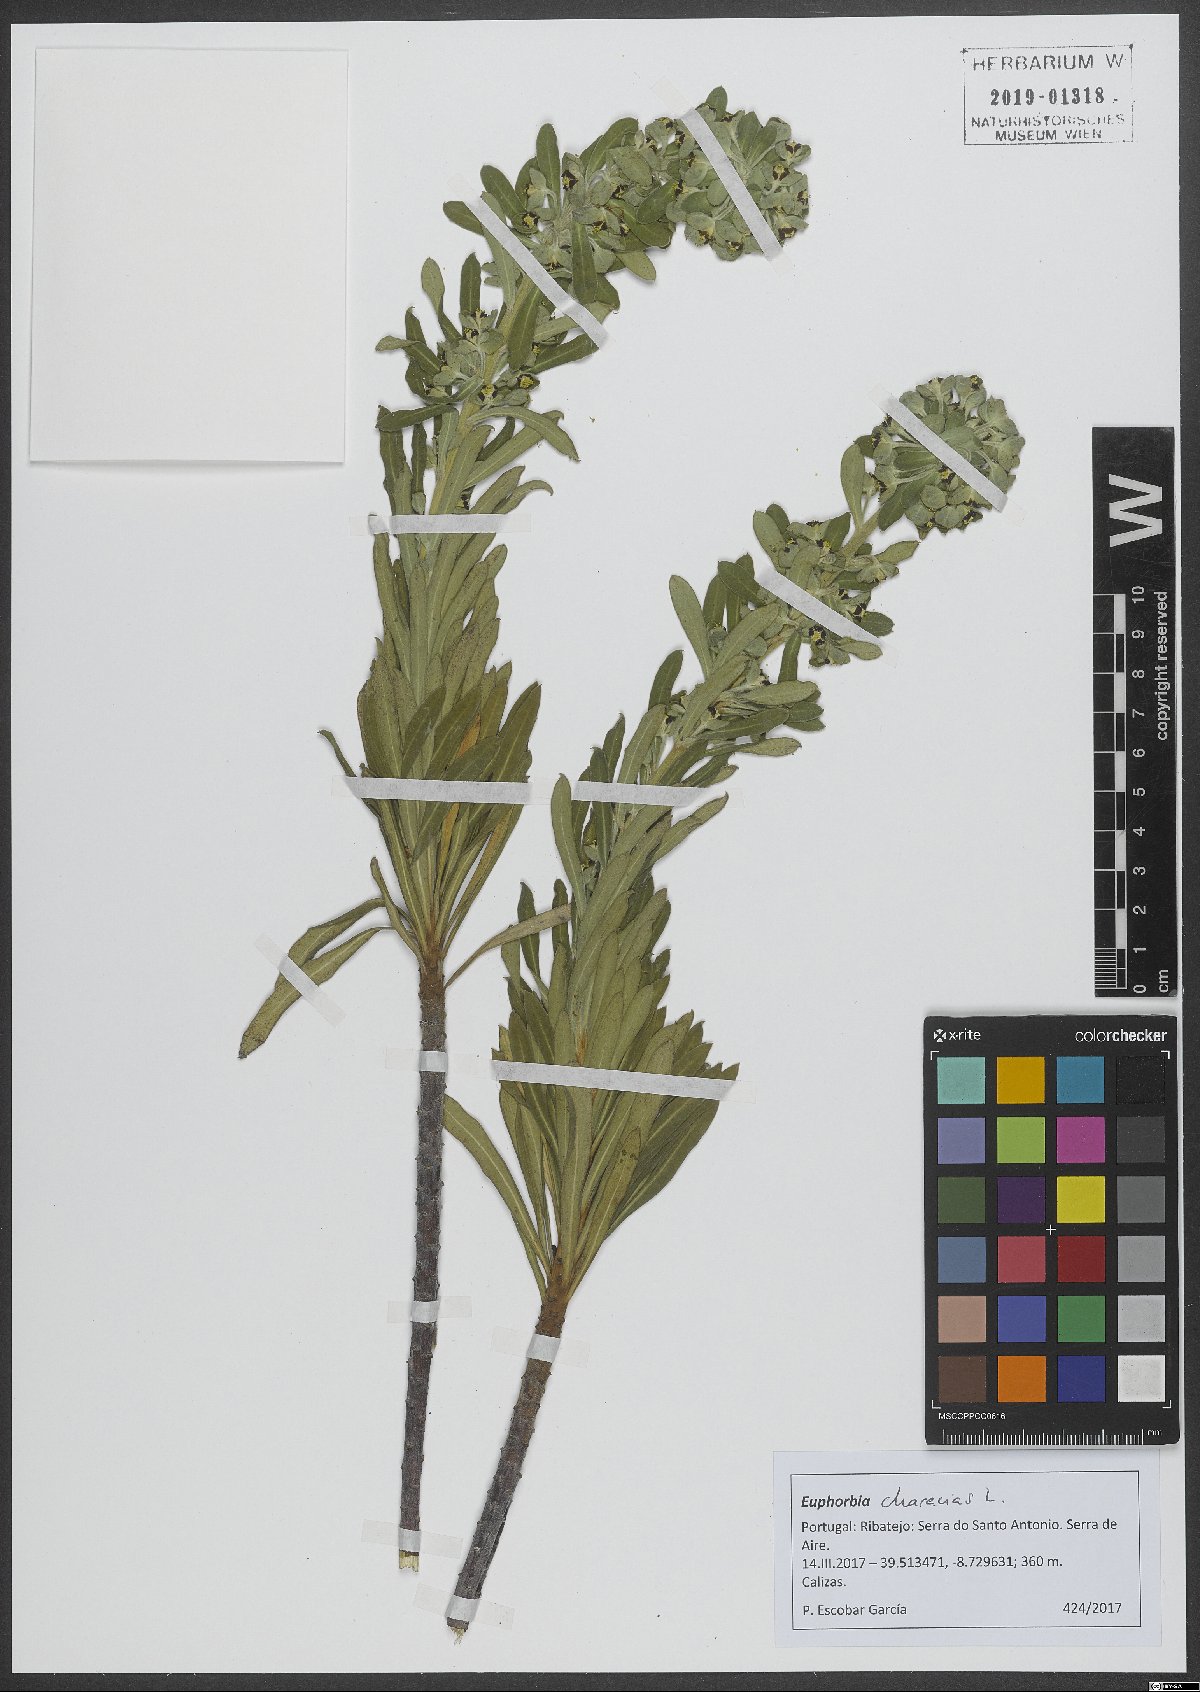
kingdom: Plantae
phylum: Tracheophyta
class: Magnoliopsida
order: Malpighiales
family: Euphorbiaceae
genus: Euphorbia
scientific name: Euphorbia characias
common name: Mediterranean spurge
